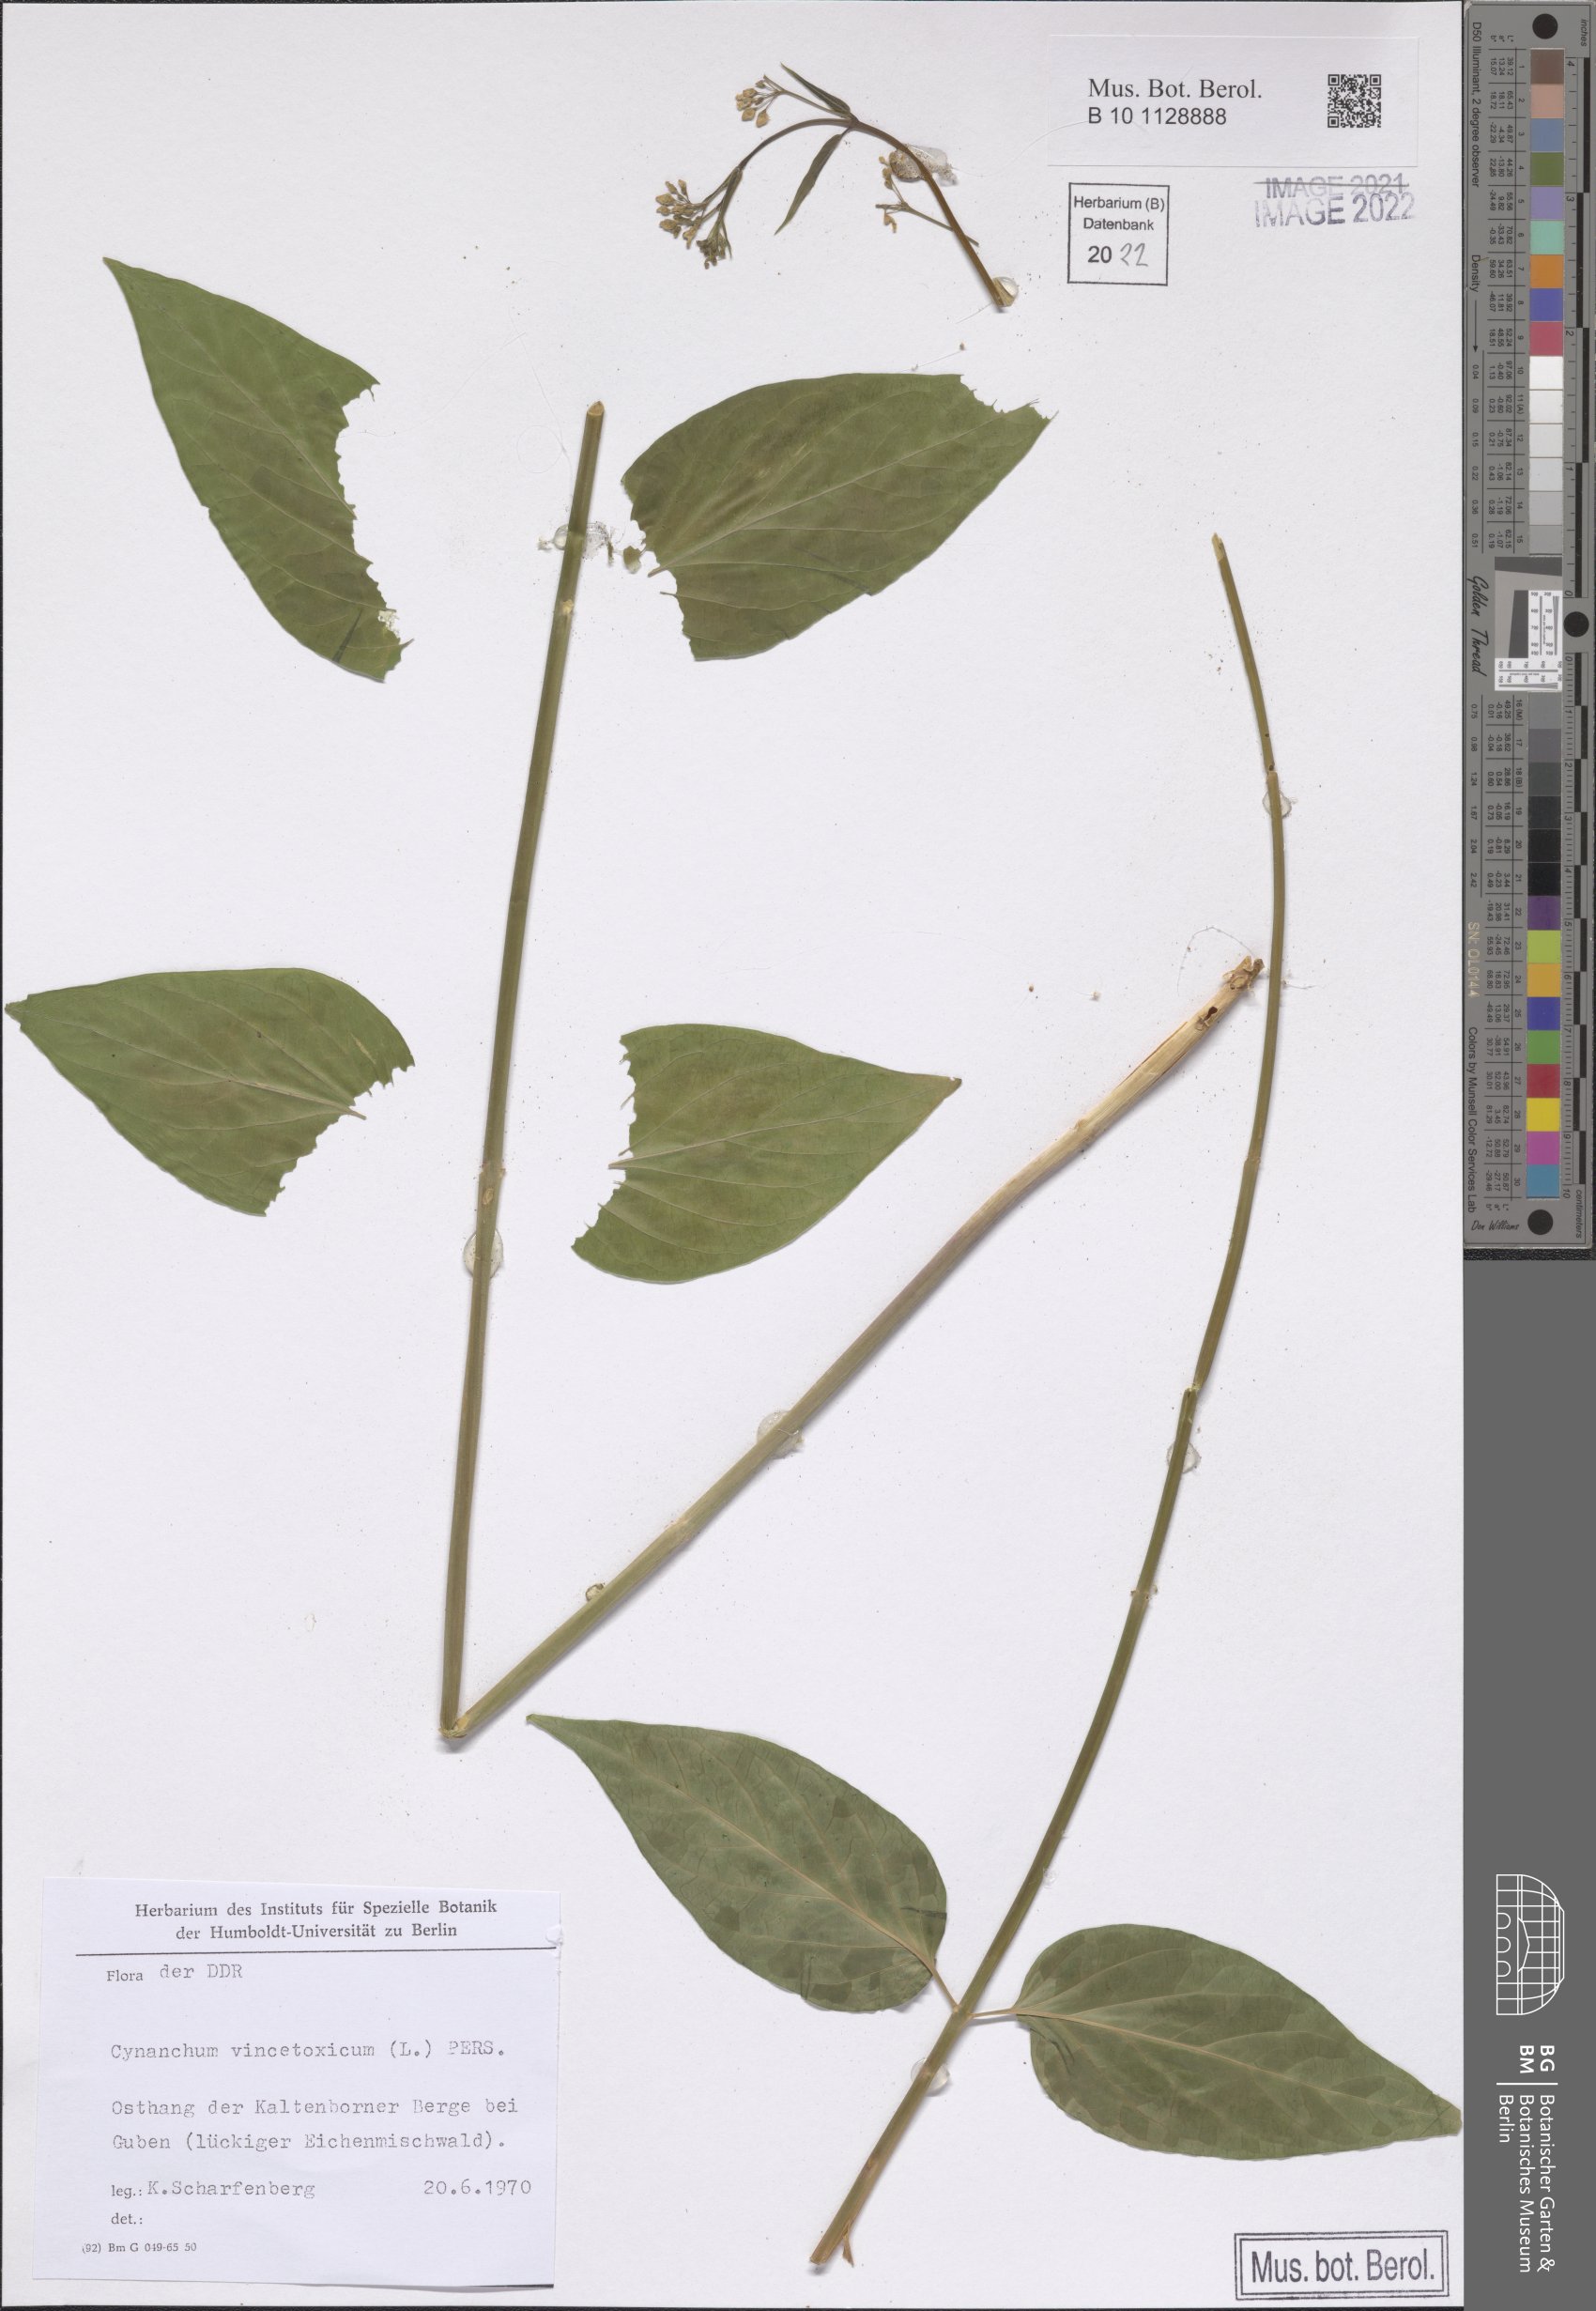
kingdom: Plantae
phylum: Tracheophyta
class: Magnoliopsida
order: Gentianales
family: Apocynaceae
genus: Vincetoxicum
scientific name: Vincetoxicum hirundinaria
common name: White swallowwort
